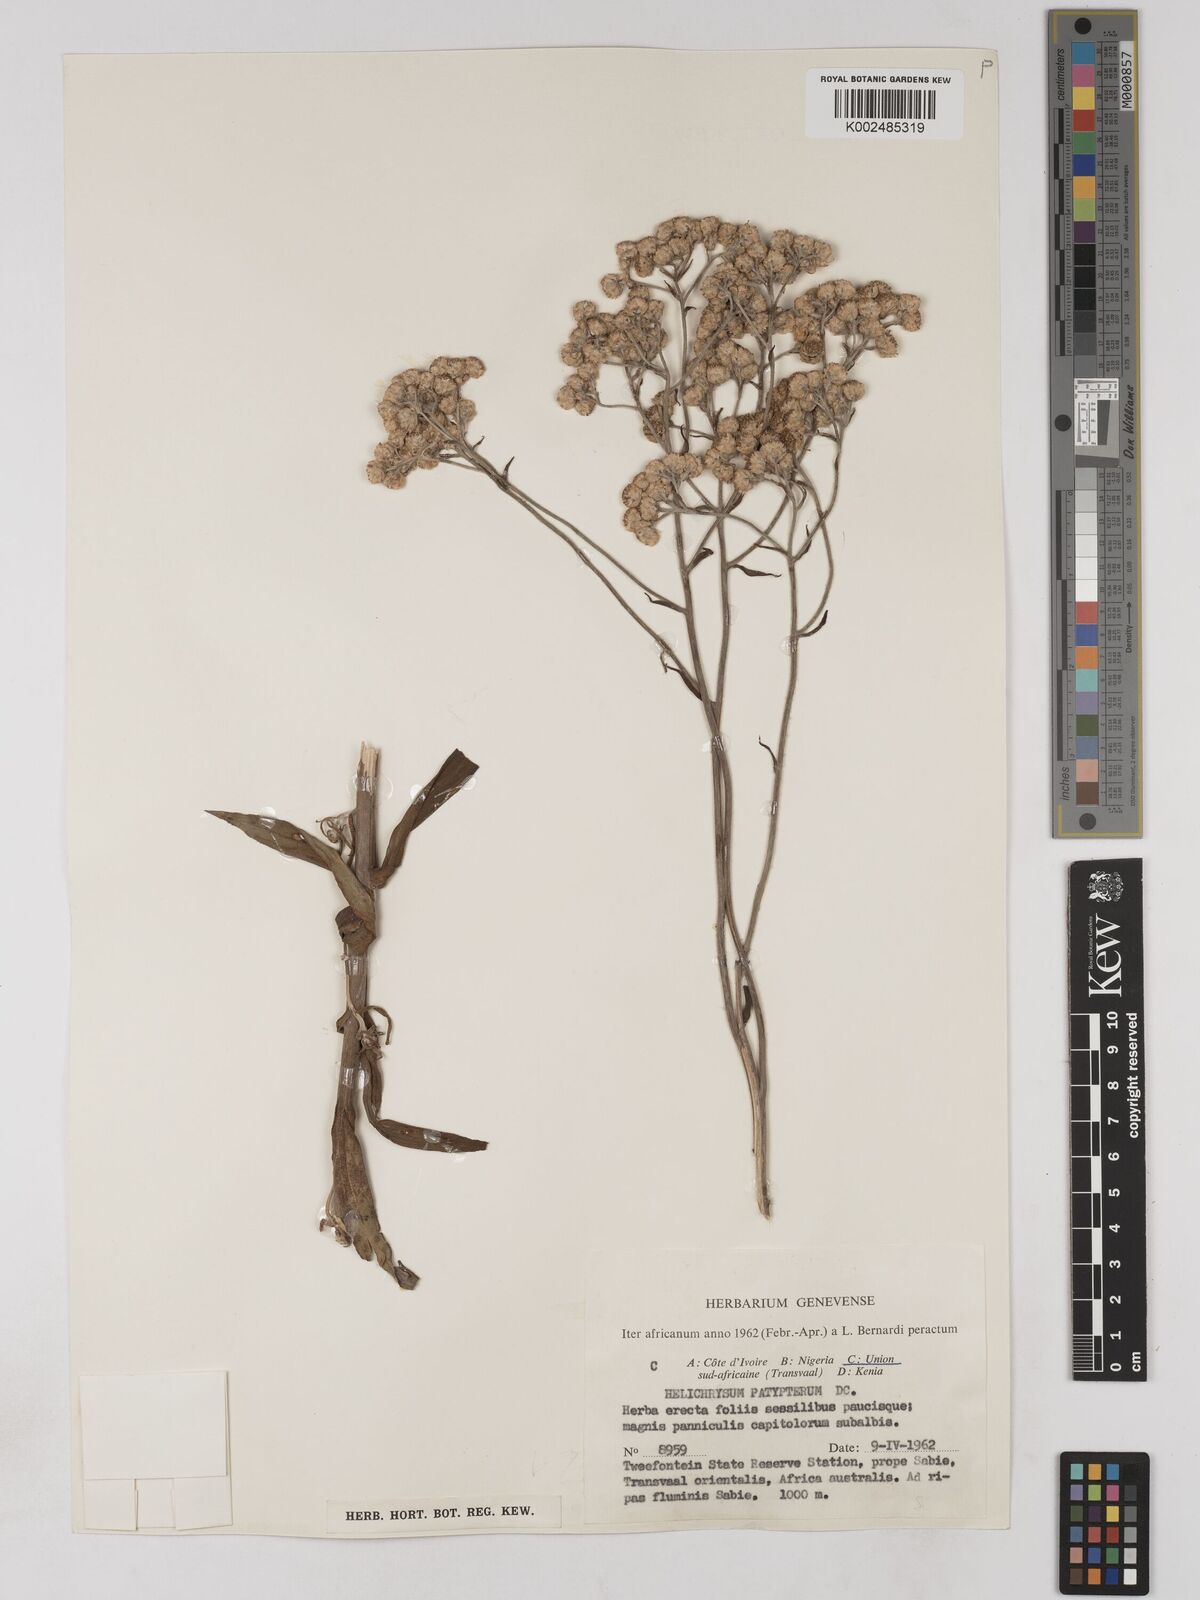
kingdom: Plantae
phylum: Tracheophyta
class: Magnoliopsida
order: Asterales
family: Asteraceae
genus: Helichrysum
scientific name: Helichrysum platypterum
